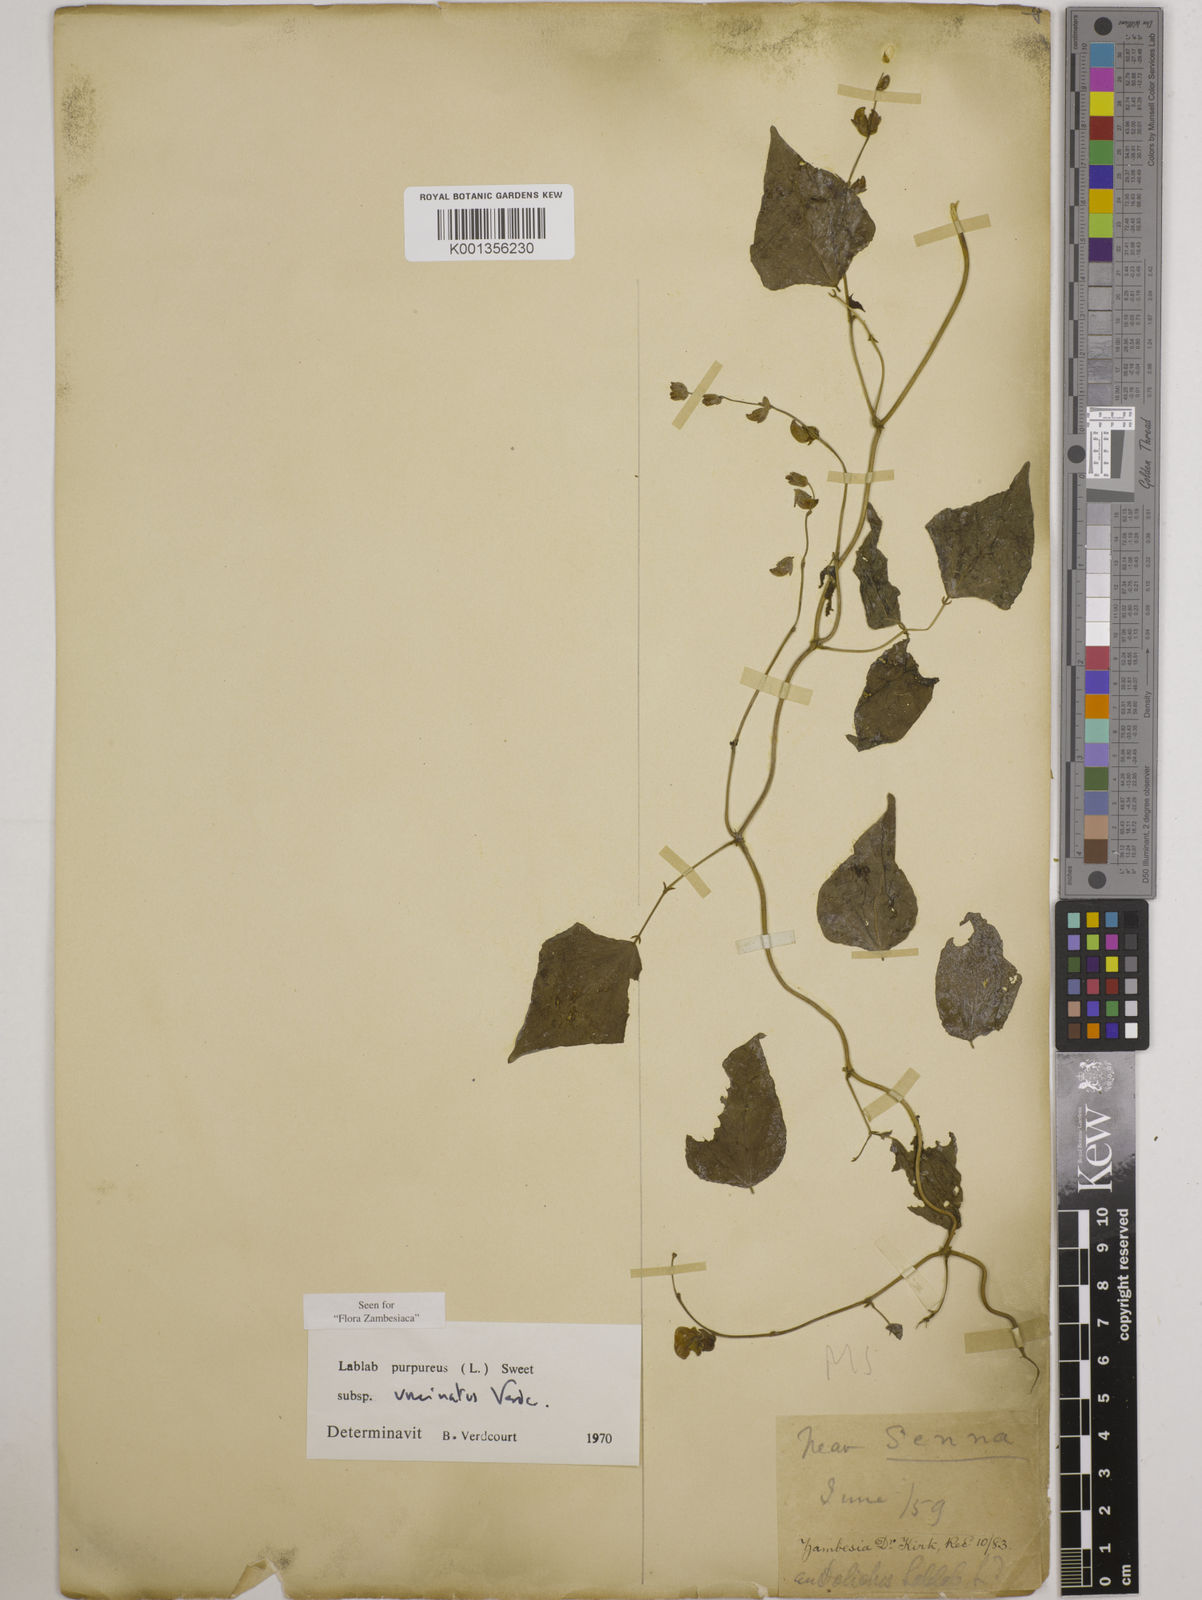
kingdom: Plantae
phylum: Tracheophyta
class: Magnoliopsida
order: Fabales
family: Fabaceae
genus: Lablab
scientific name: Lablab purpureus
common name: Lablab-bean
